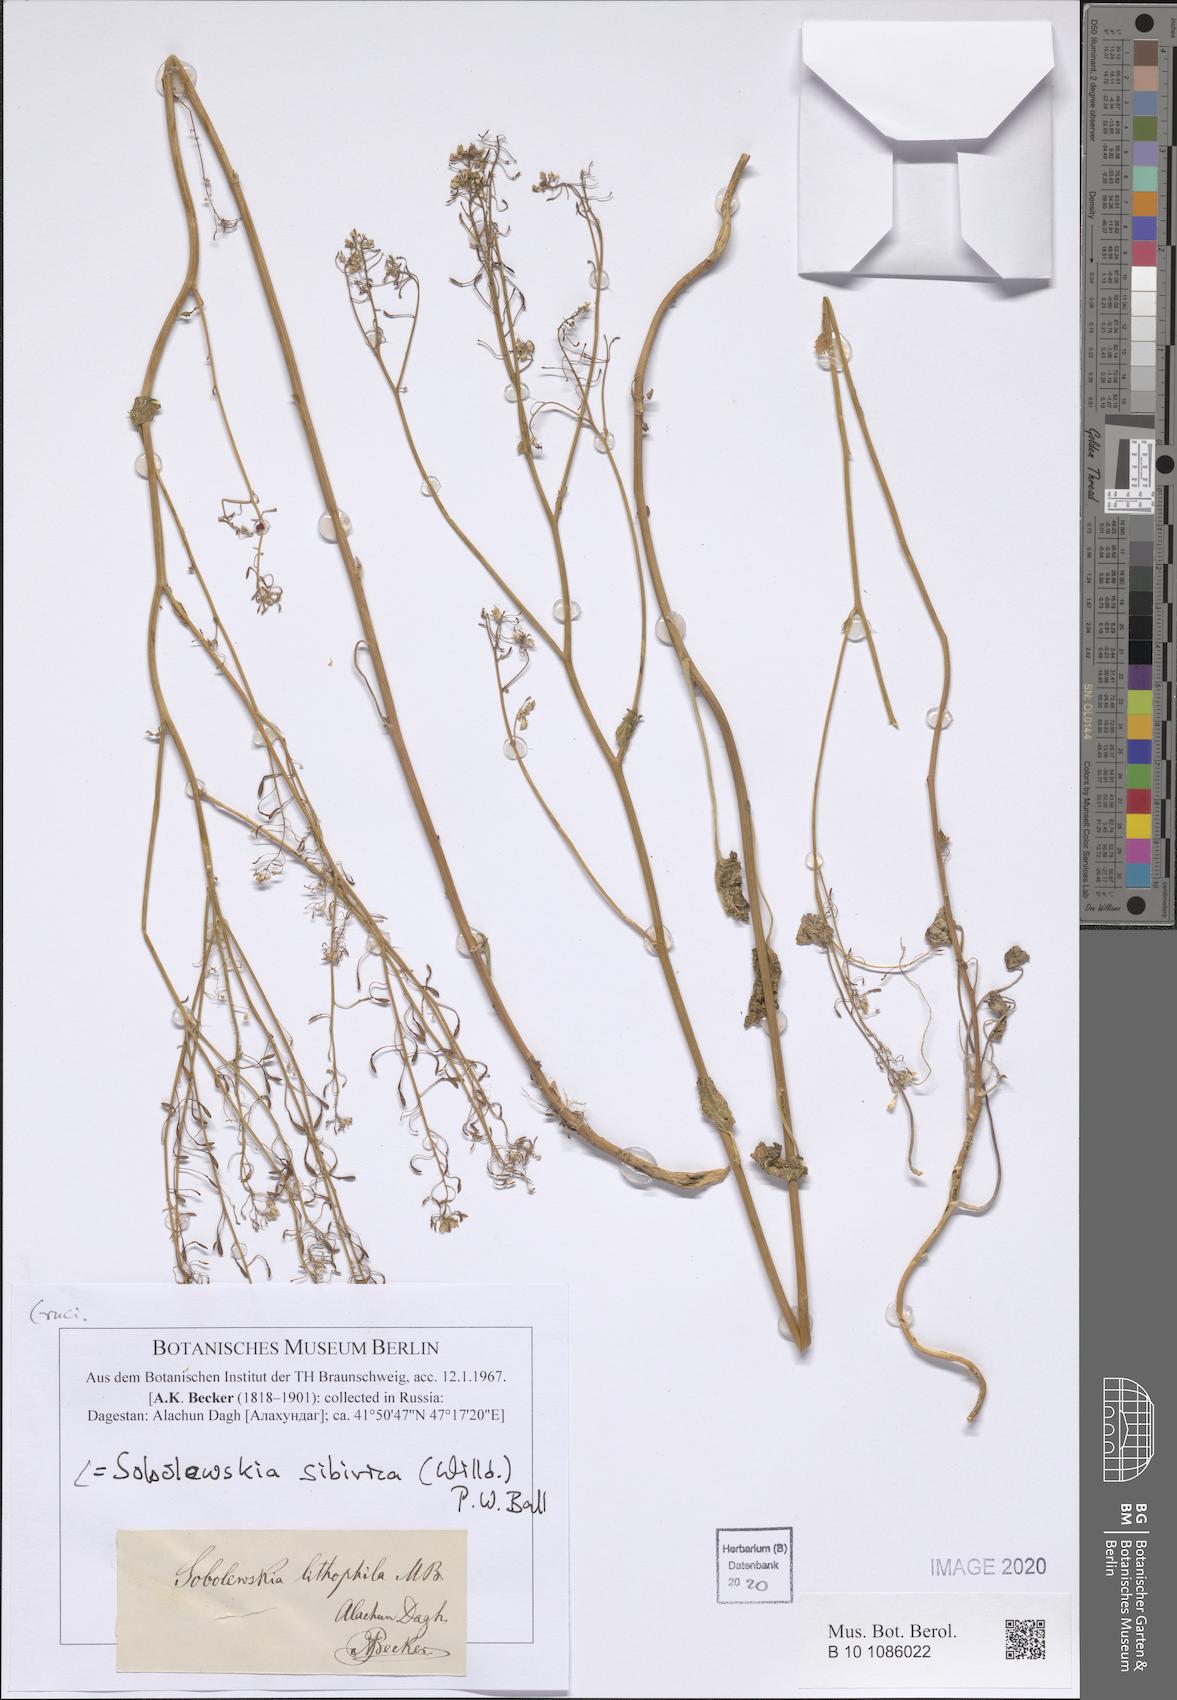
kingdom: Plantae
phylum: Tracheophyta
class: Magnoliopsida
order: Brassicales
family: Brassicaceae
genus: Sobolewskia
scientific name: Sobolewskia sibirica
